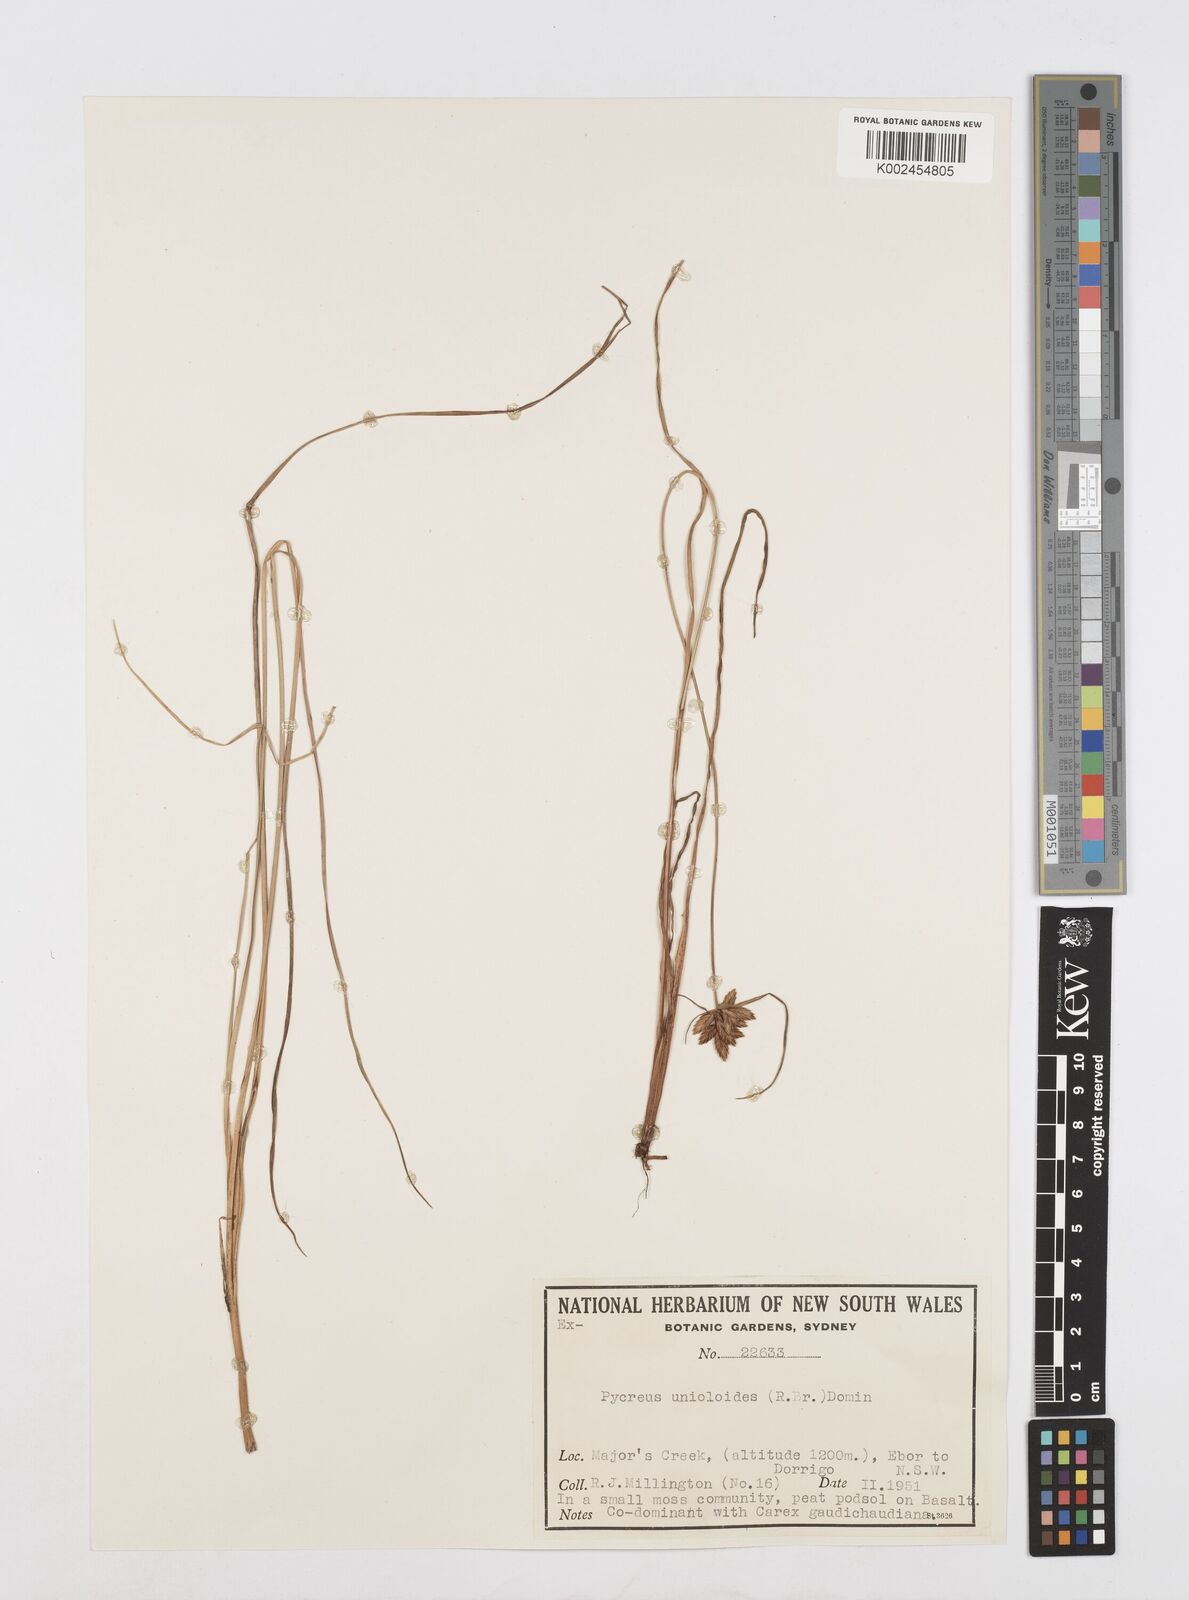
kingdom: Plantae
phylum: Tracheophyta
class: Liliopsida
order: Poales
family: Cyperaceae
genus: Cyperus
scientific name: Cyperus unioloides
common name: Uniola flatsedge
